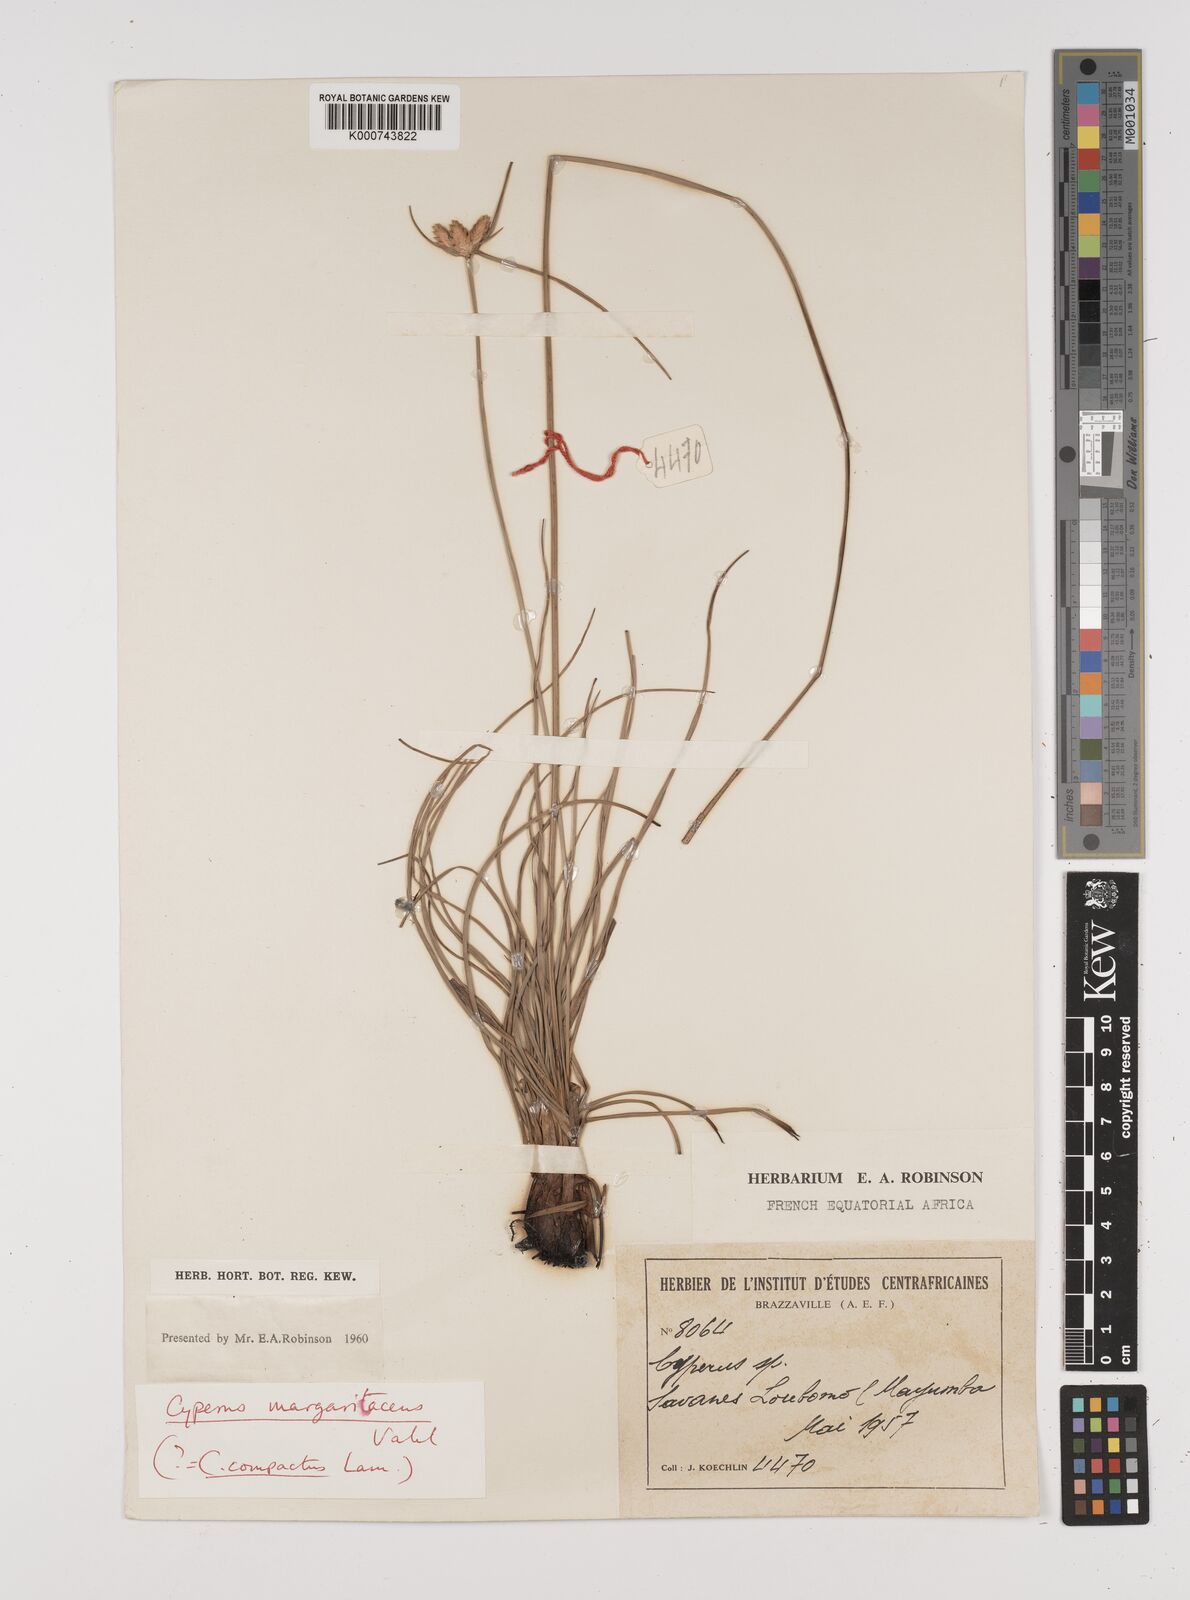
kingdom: Plantae
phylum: Tracheophyta
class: Liliopsida
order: Poales
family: Cyperaceae
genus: Cyperus
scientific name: Cyperus margaritaceus
